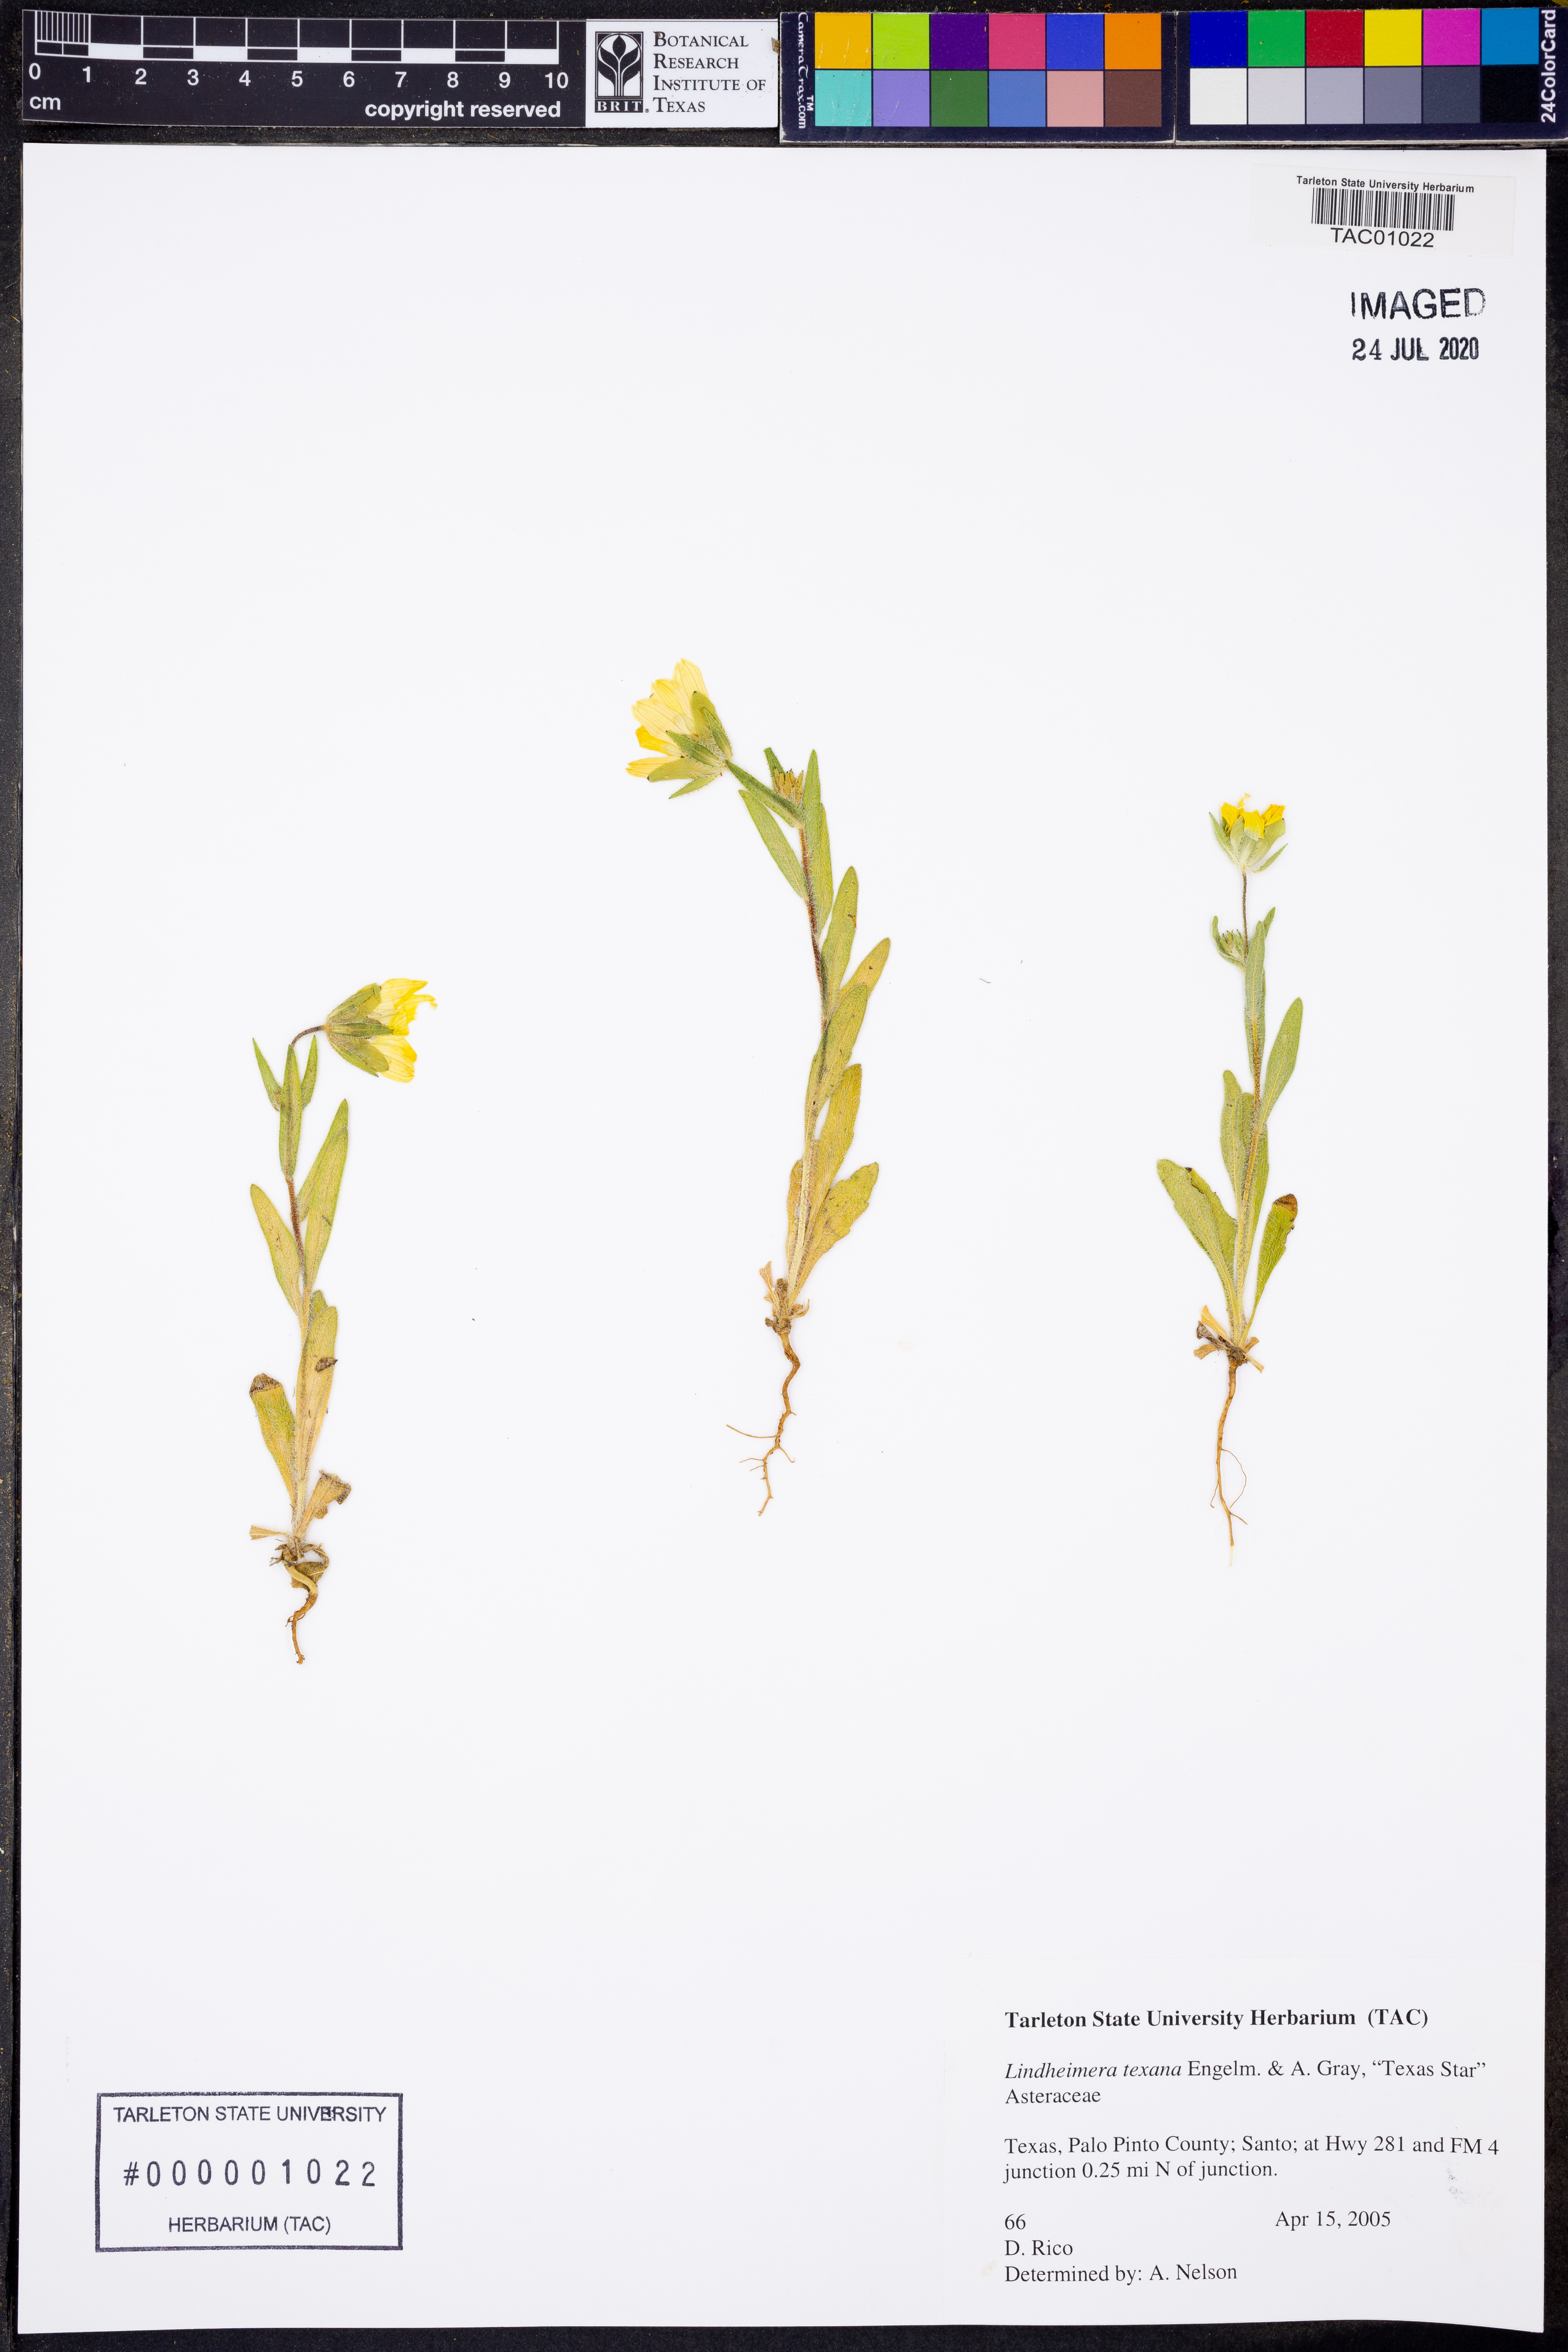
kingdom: Plantae
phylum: Tracheophyta
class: Magnoliopsida
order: Asterales
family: Asteraceae
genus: Lindheimera
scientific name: Lindheimera texana
